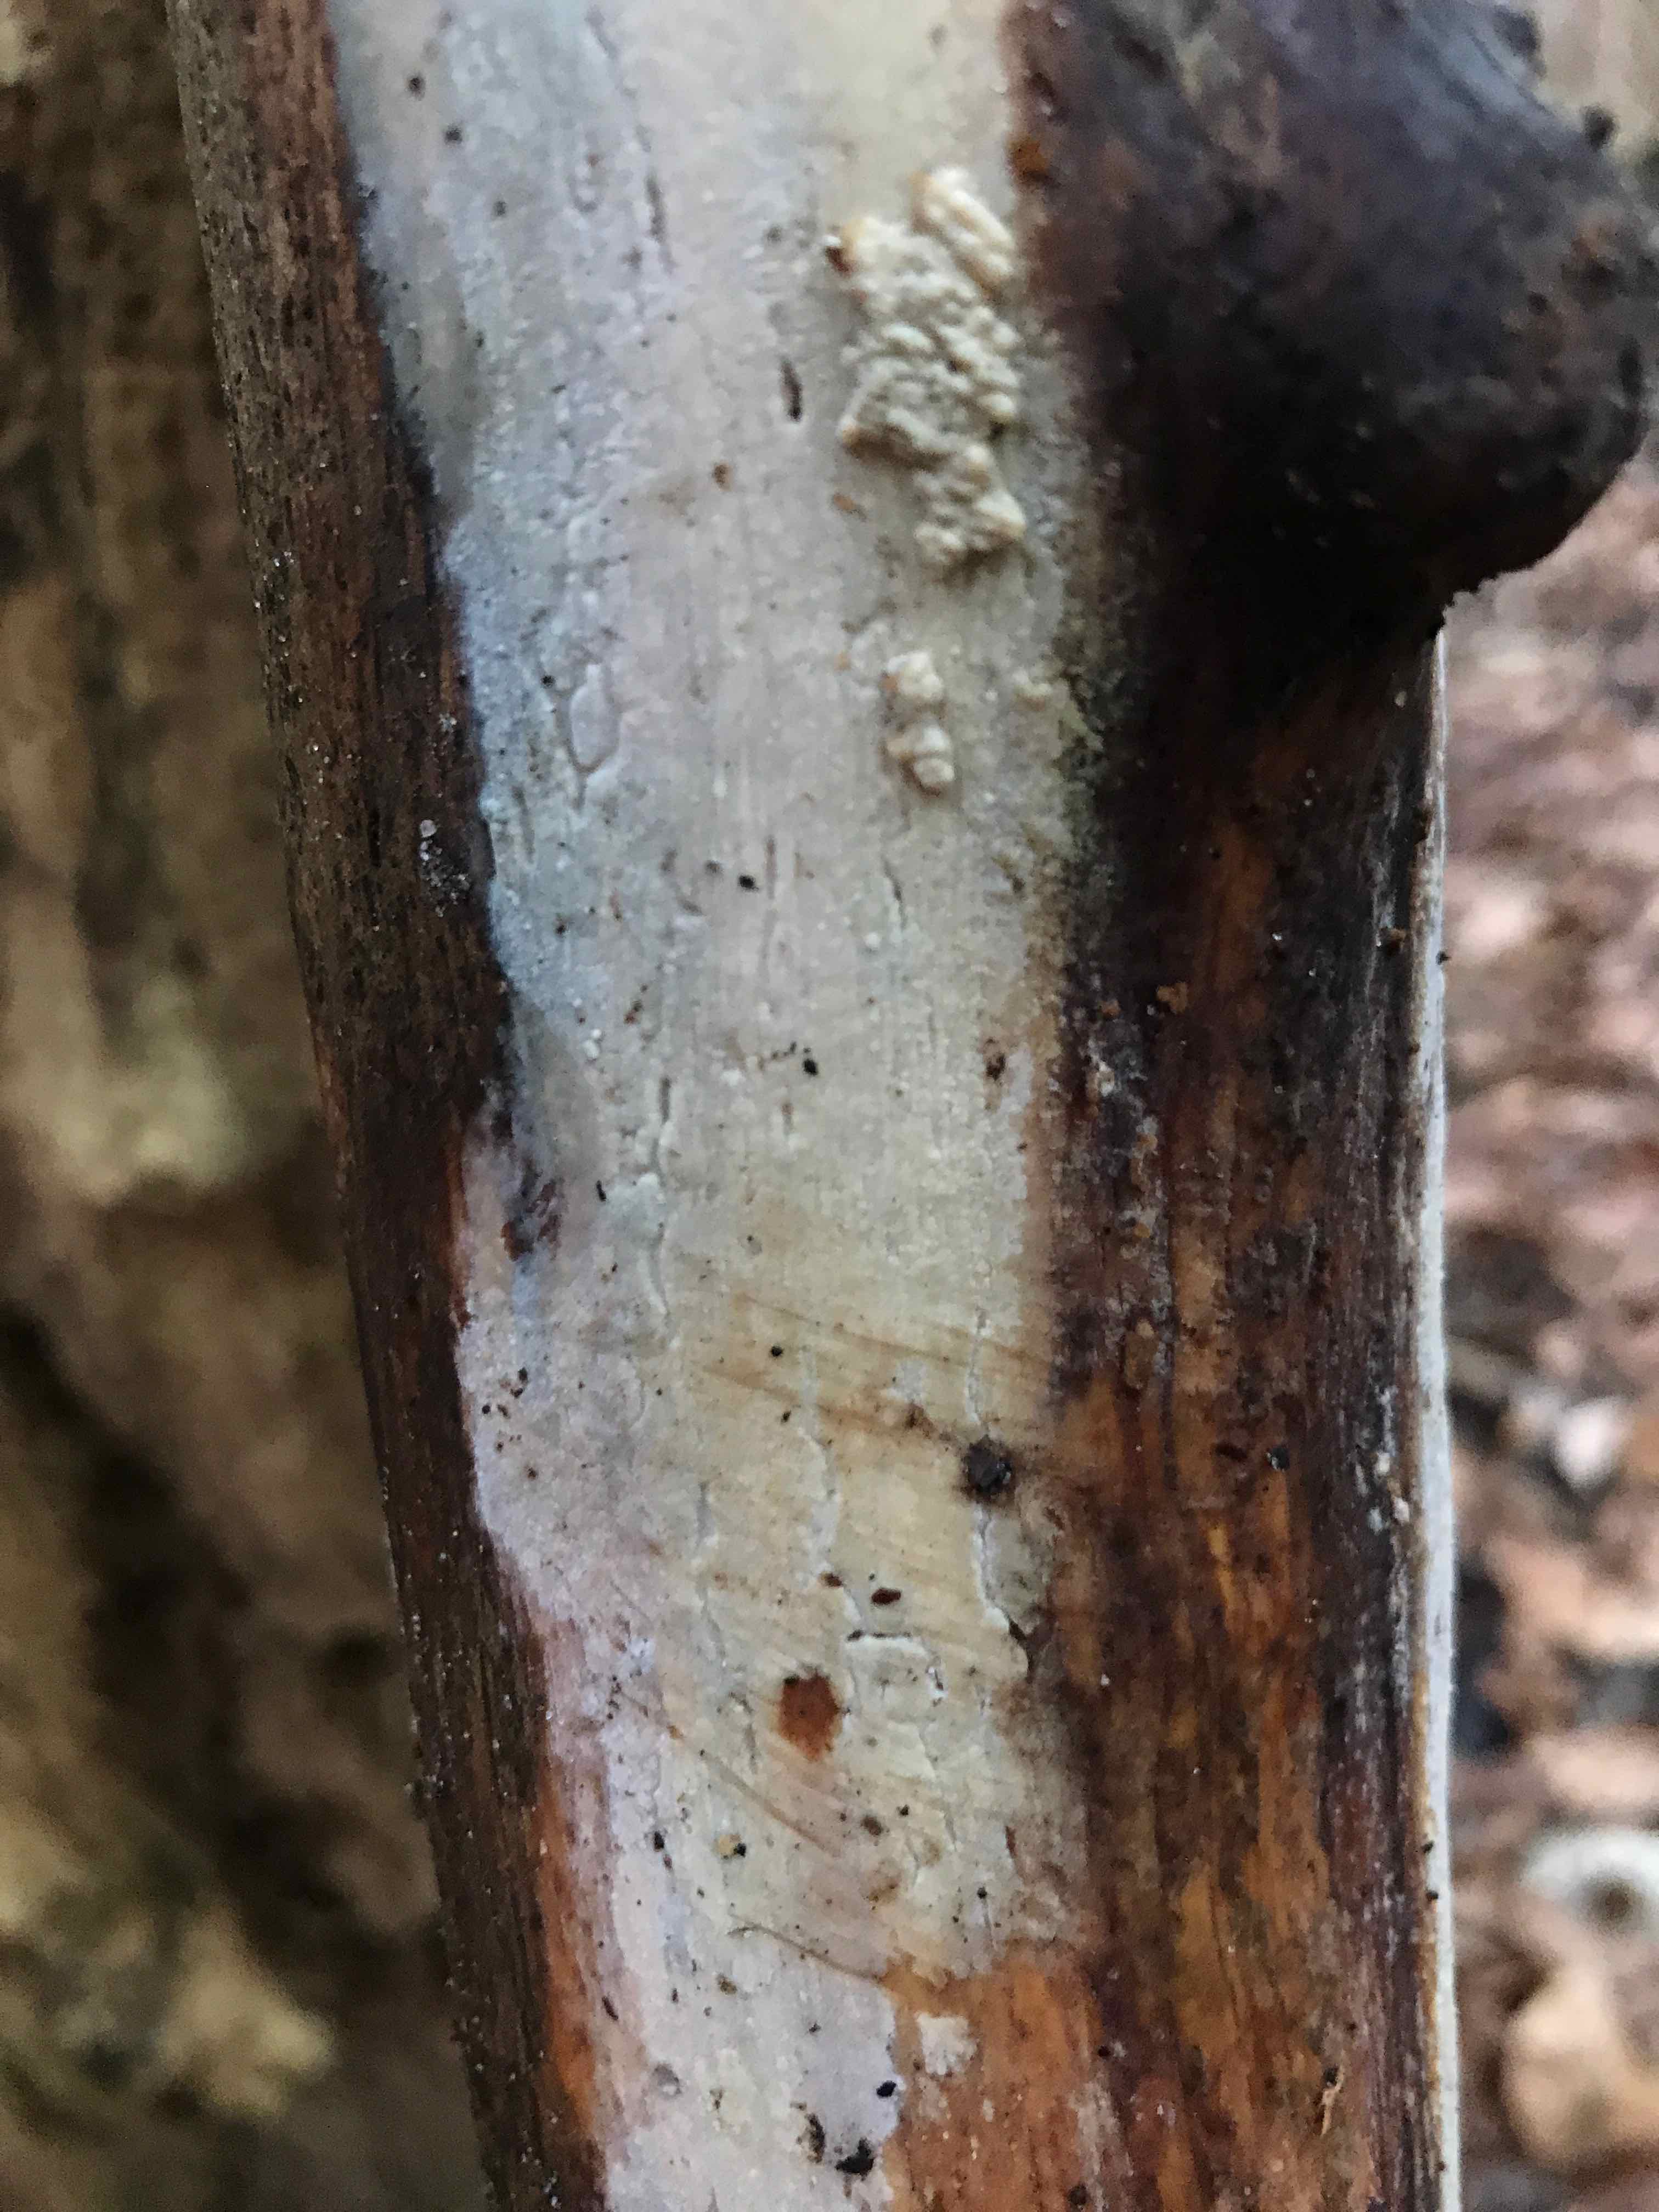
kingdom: Fungi
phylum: Basidiomycota
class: Agaricomycetes
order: Corticiales
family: Corticiaceae
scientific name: Corticiaceae
